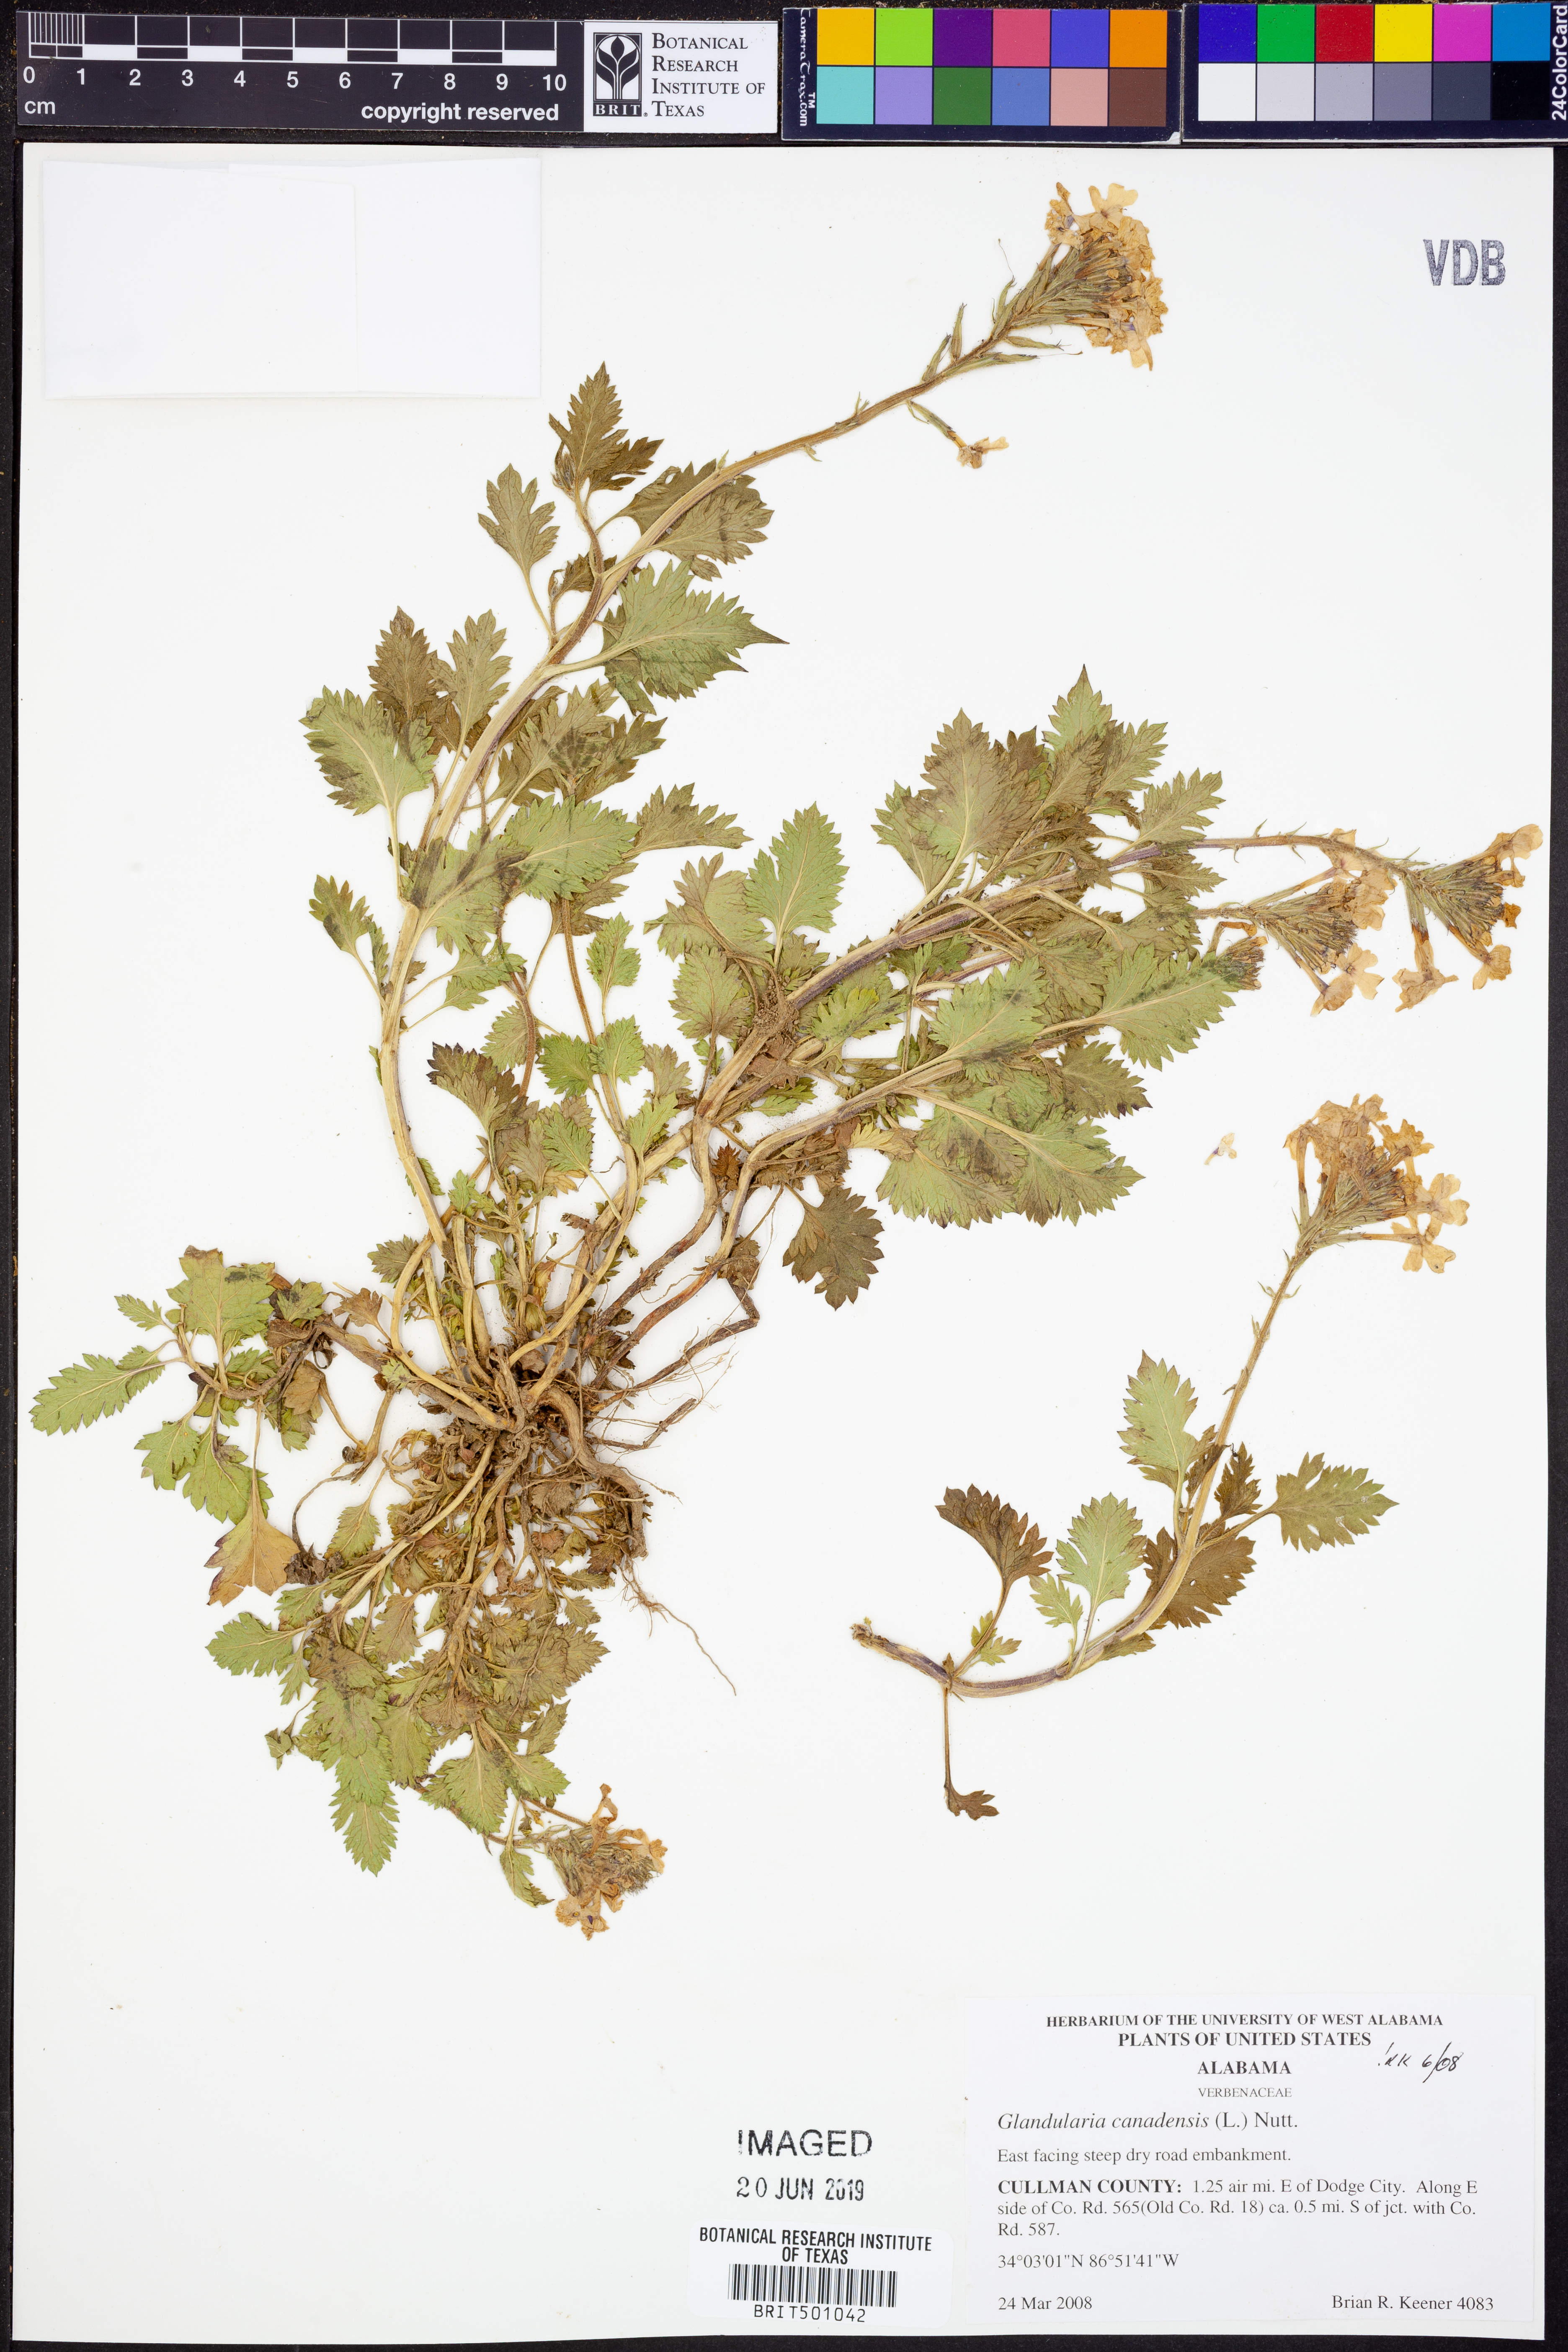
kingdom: Plantae
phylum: Tracheophyta
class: Magnoliopsida
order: Lamiales
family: Verbenaceae
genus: Verbena
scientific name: Verbena canadensis
